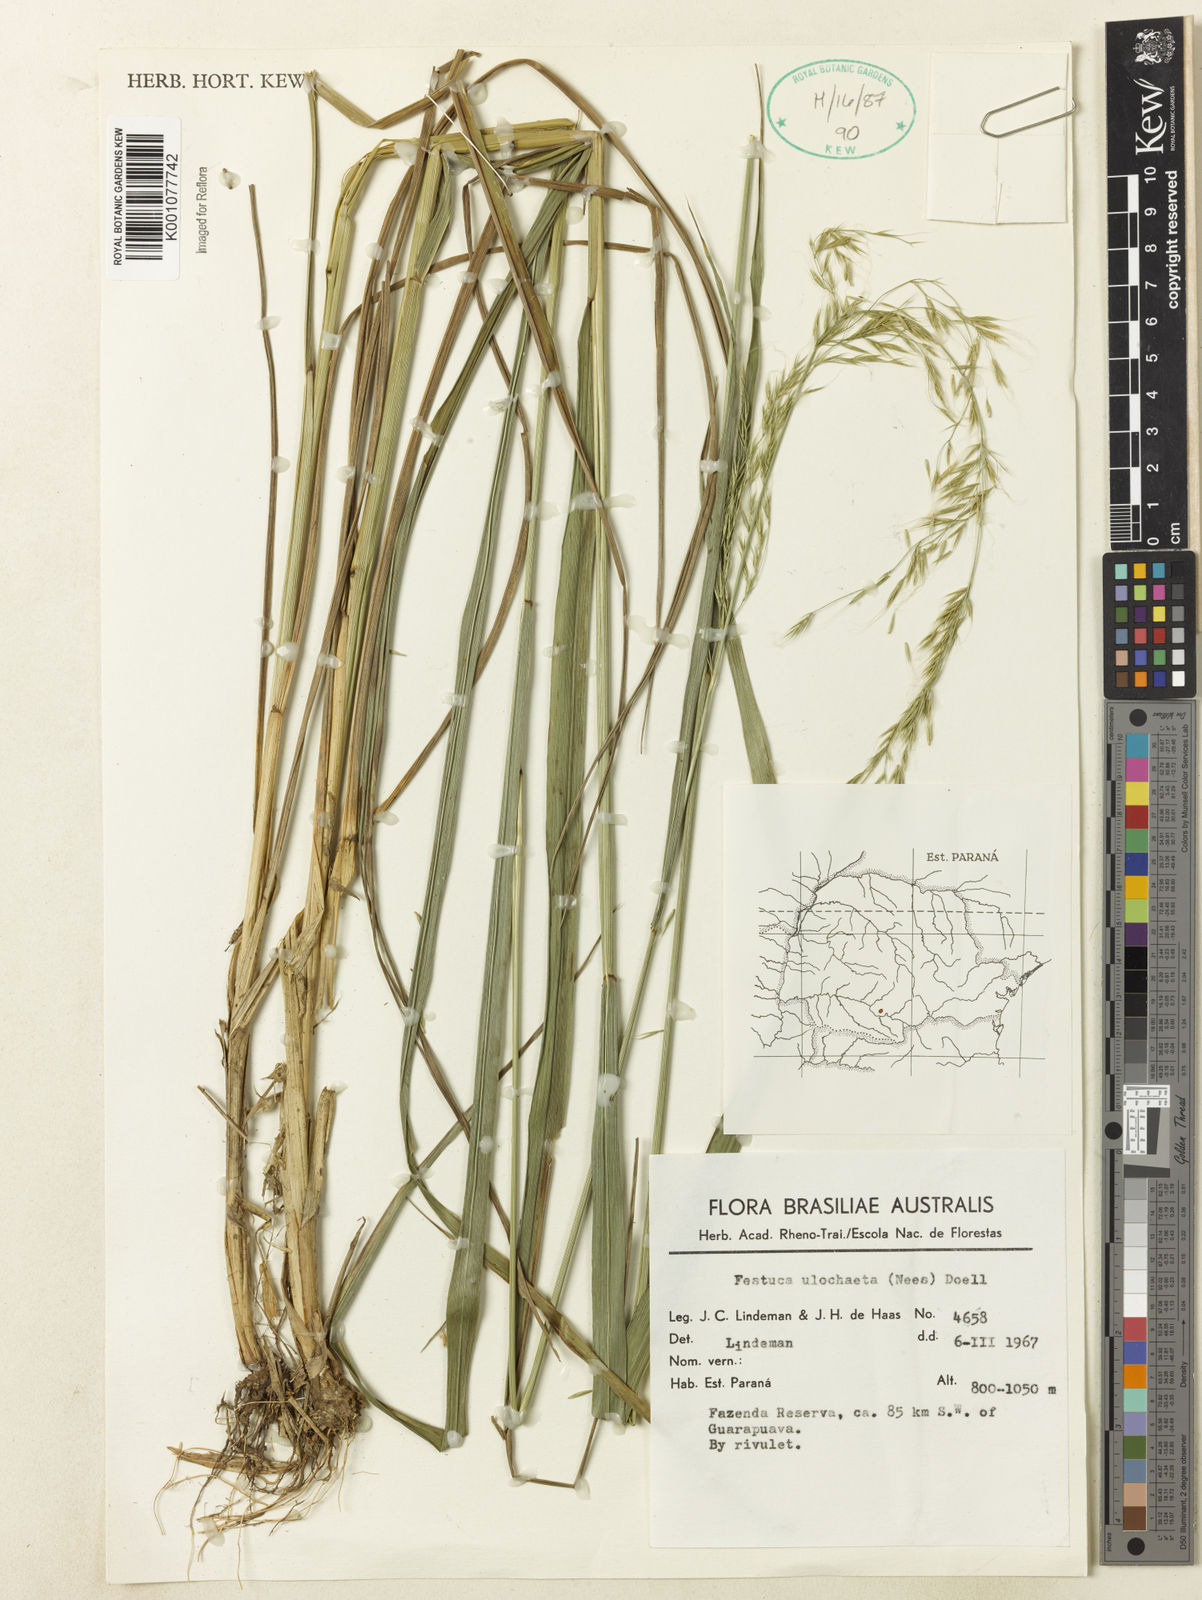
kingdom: Plantae
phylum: Tracheophyta
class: Liliopsida
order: Poales
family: Poaceae
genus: Festuca
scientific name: Festuca ulochaeta
